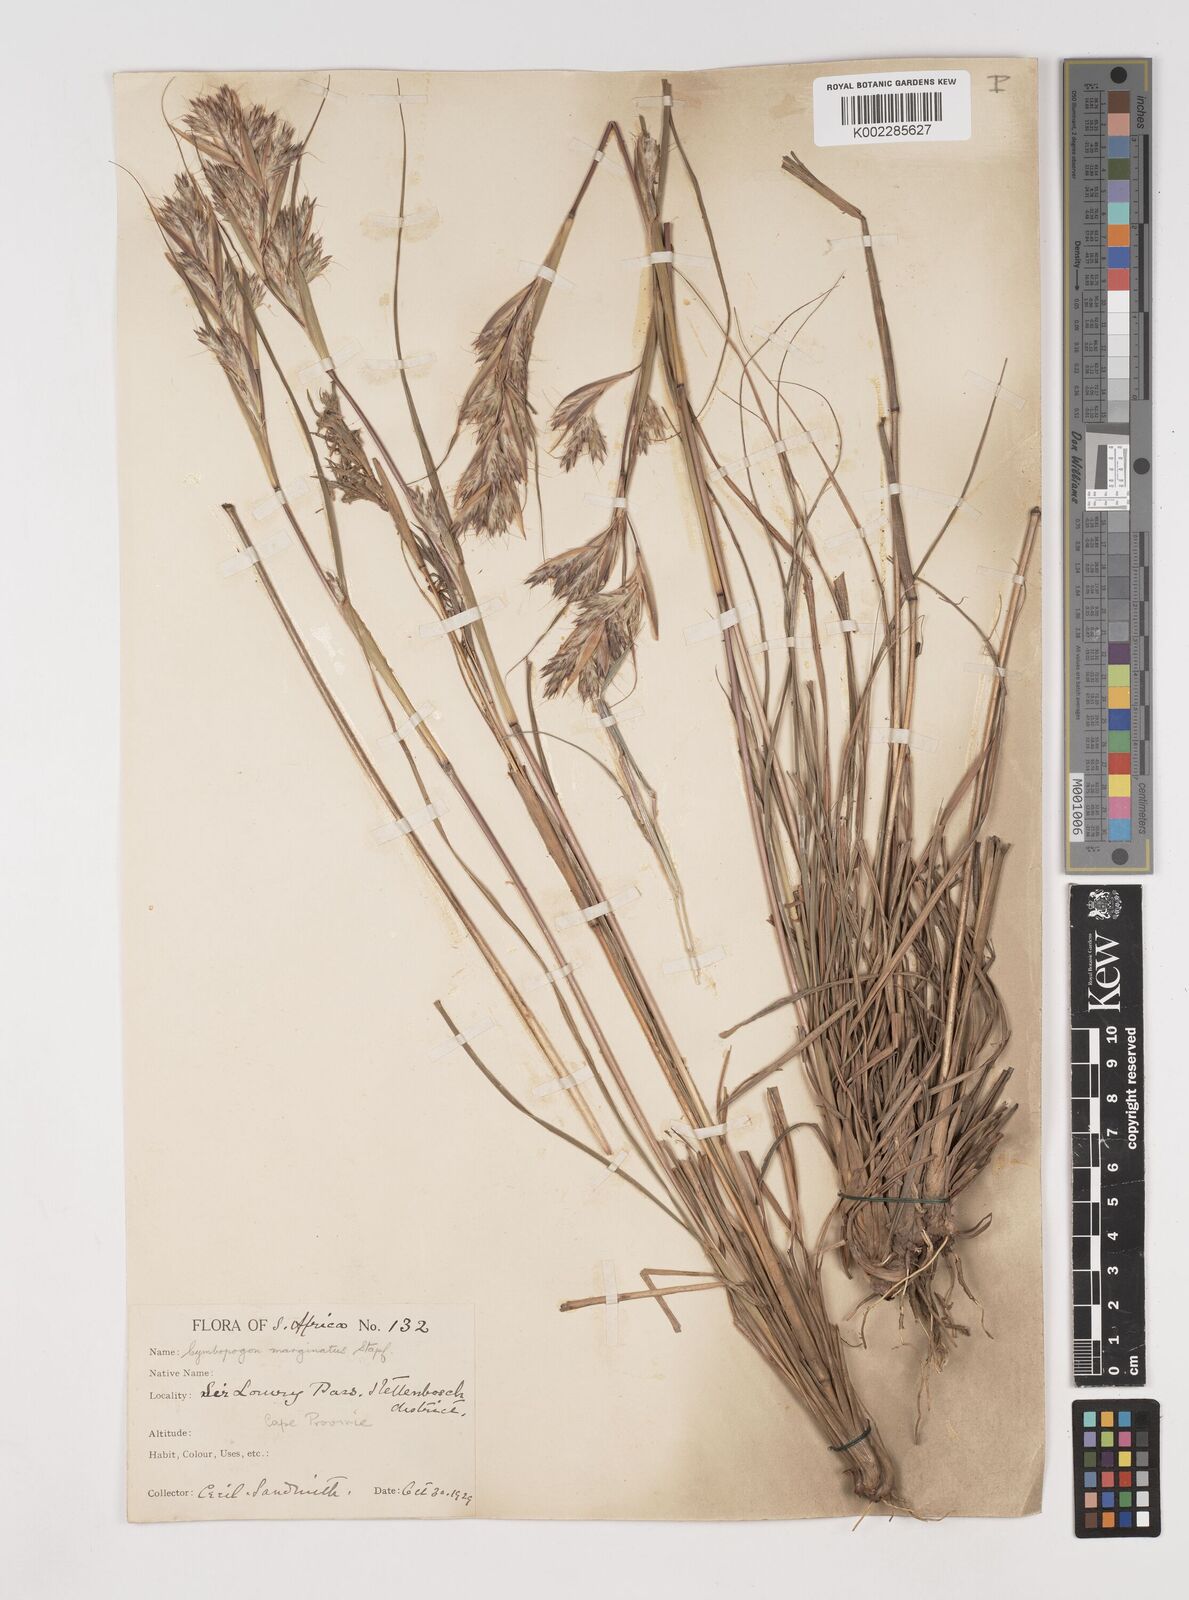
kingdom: Plantae
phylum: Tracheophyta
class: Liliopsida
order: Poales
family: Poaceae
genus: Cymbopogon
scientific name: Cymbopogon marginatus
